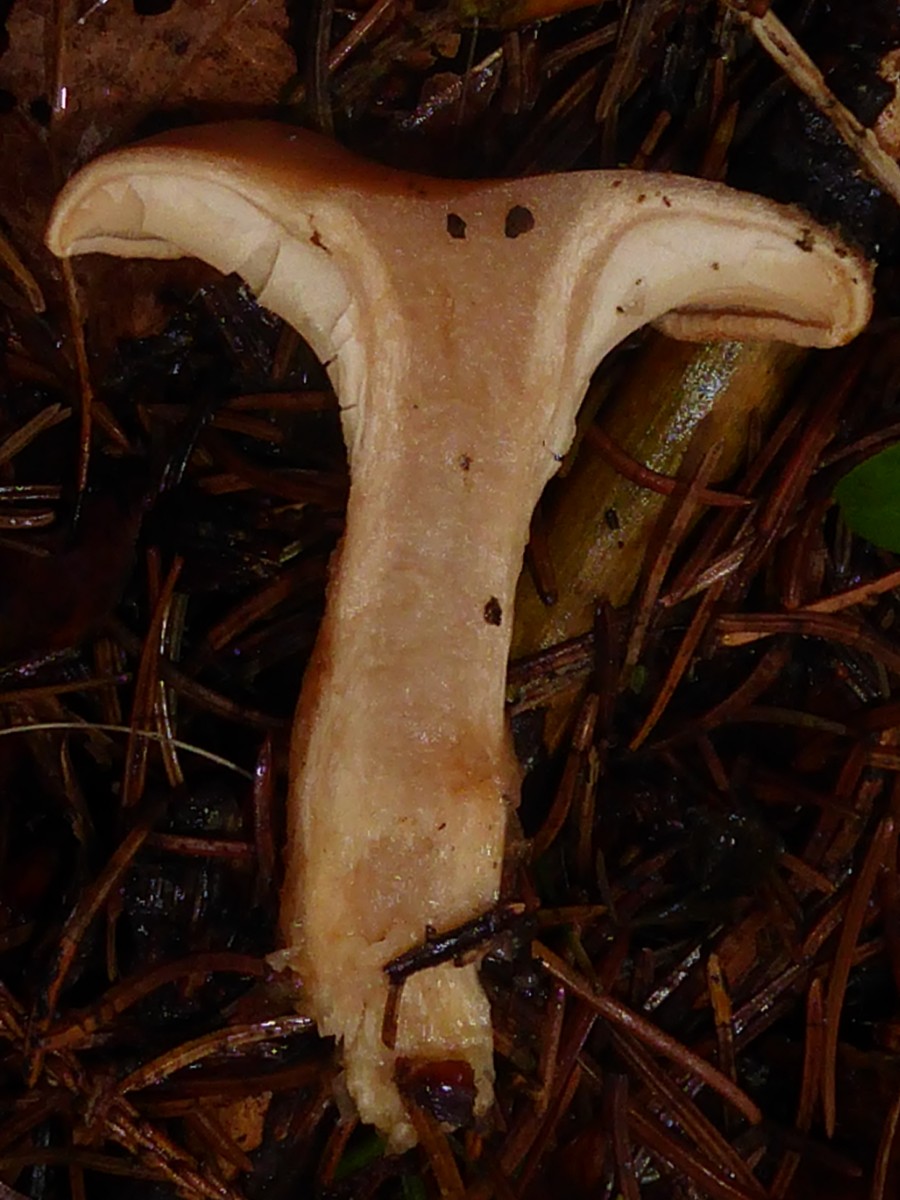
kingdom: Fungi
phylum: Basidiomycota
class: Agaricomycetes
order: Agaricales
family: Tricholomataceae
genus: Paralepista
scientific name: Paralepista flaccida
